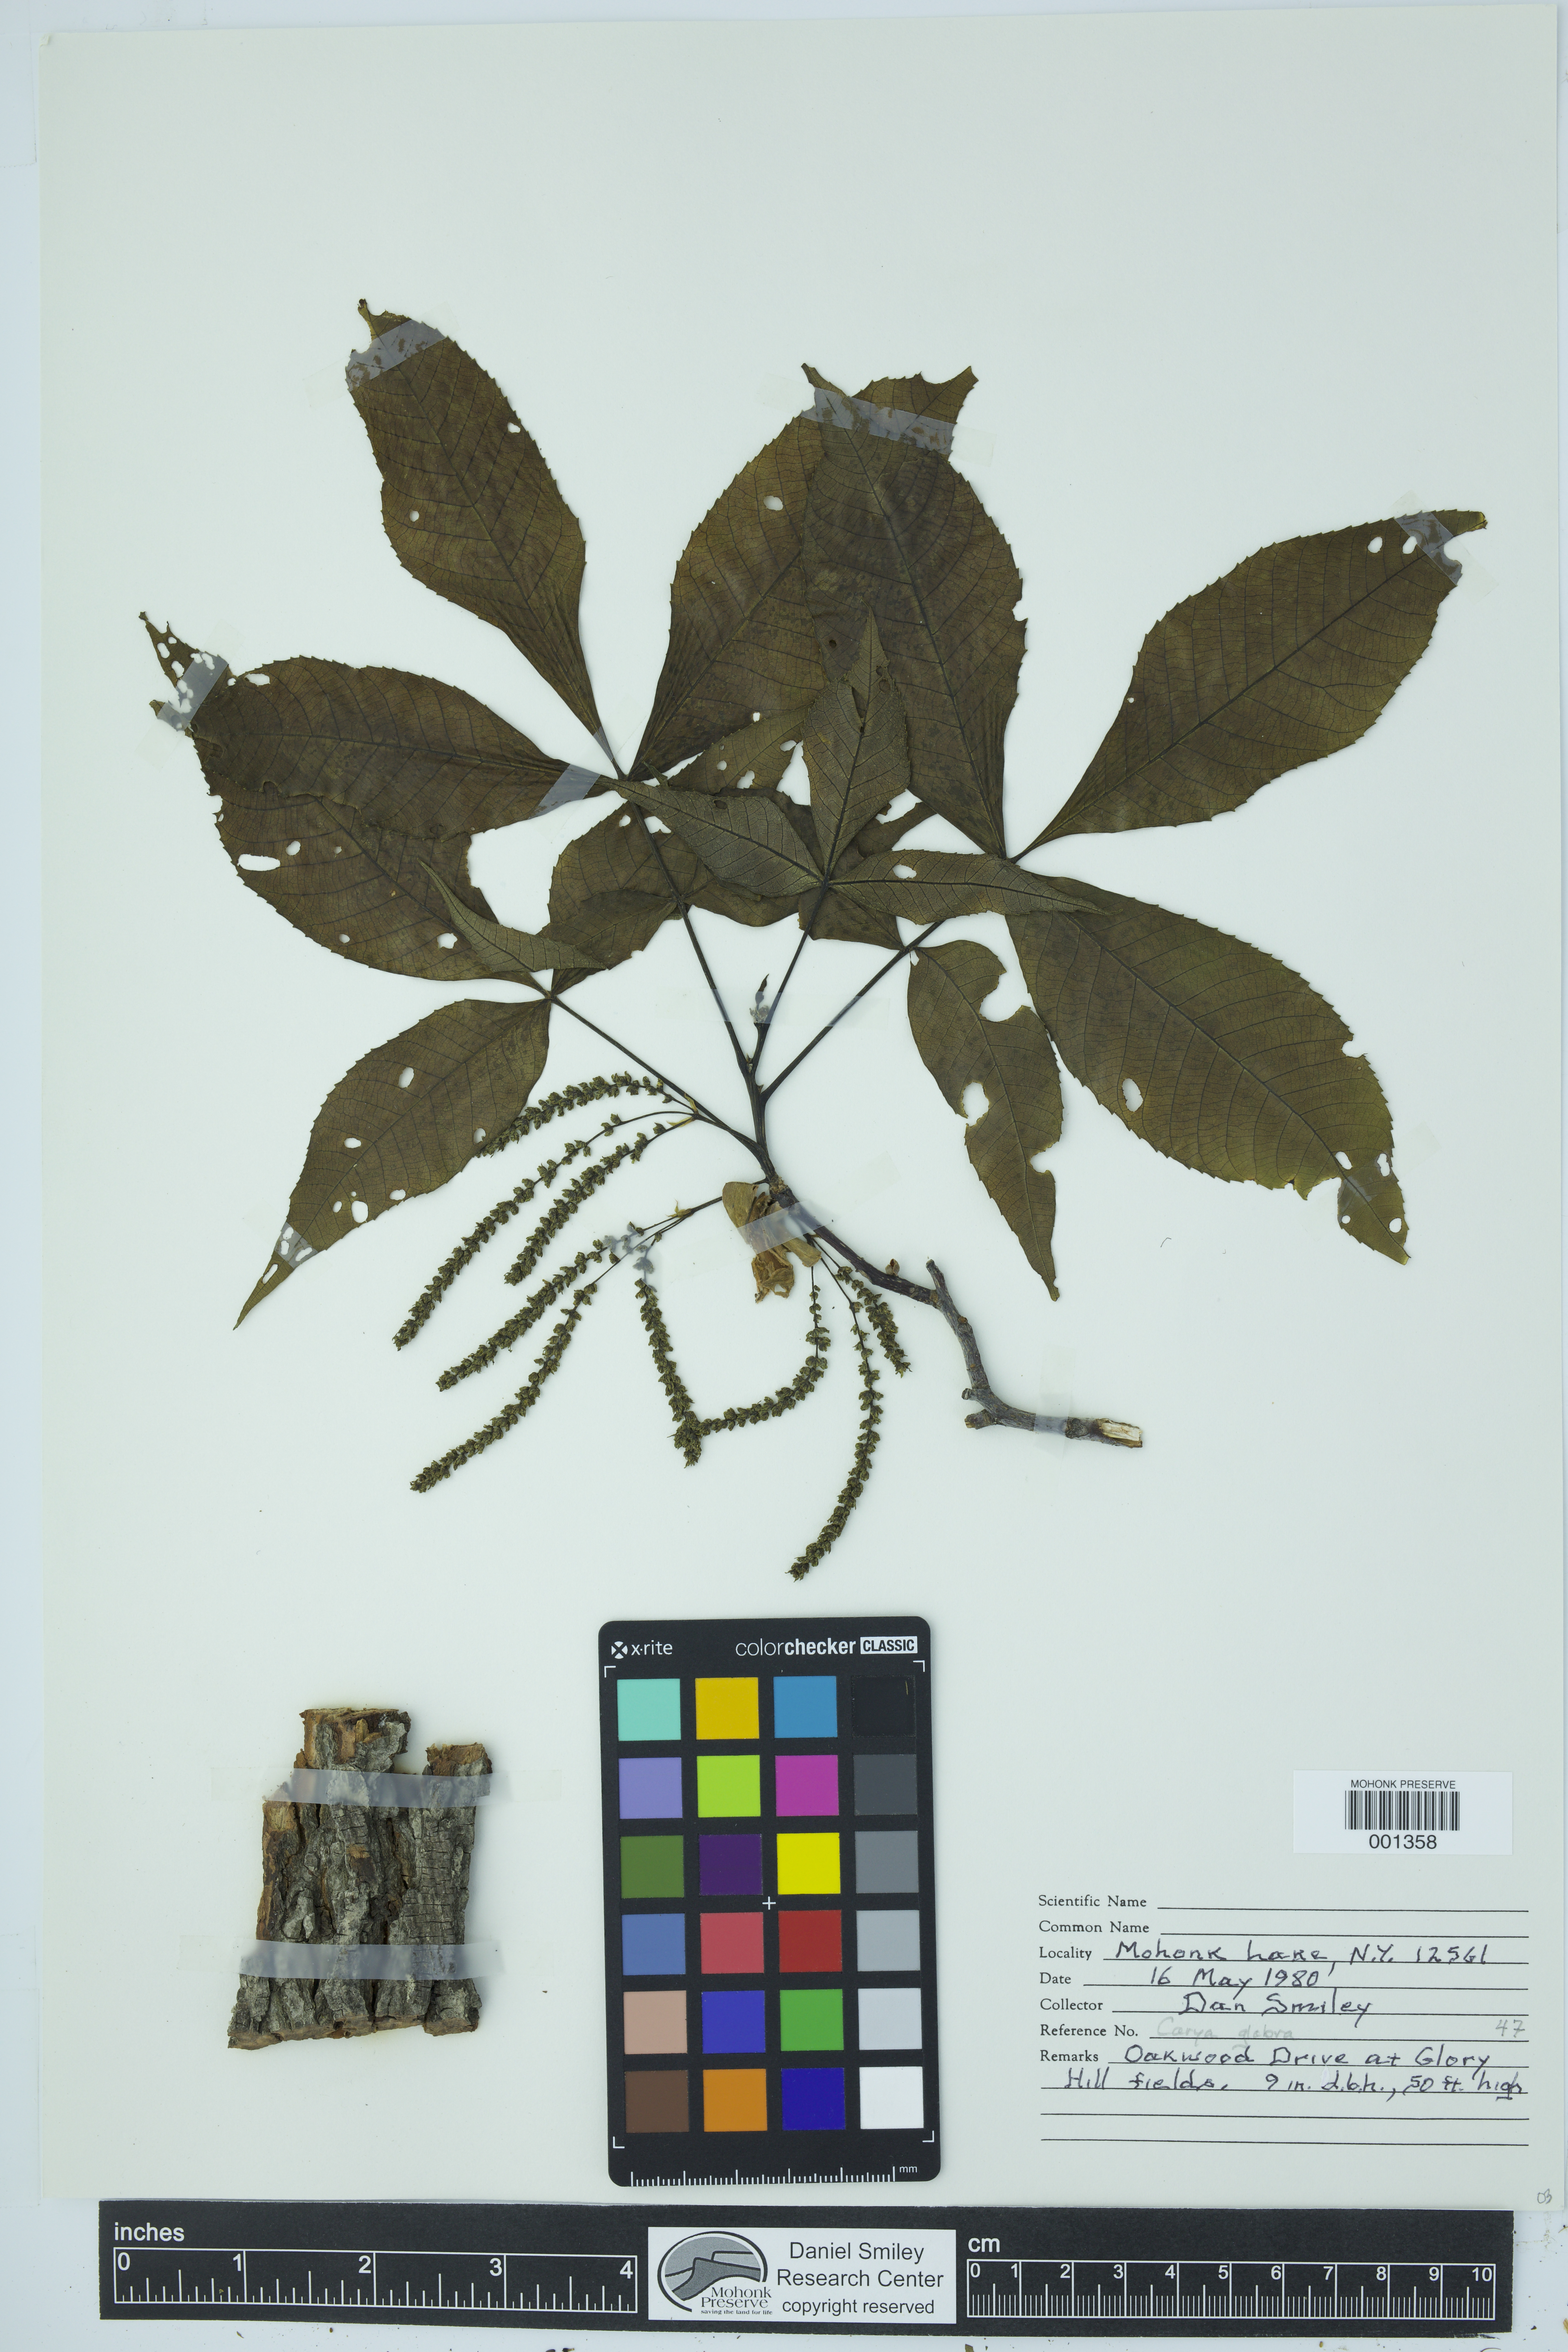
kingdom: Plantae
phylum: Tracheophyta
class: Magnoliopsida
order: Fagales
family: Juglandaceae
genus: Carya
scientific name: Carya glabra
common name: Pignut hickory
